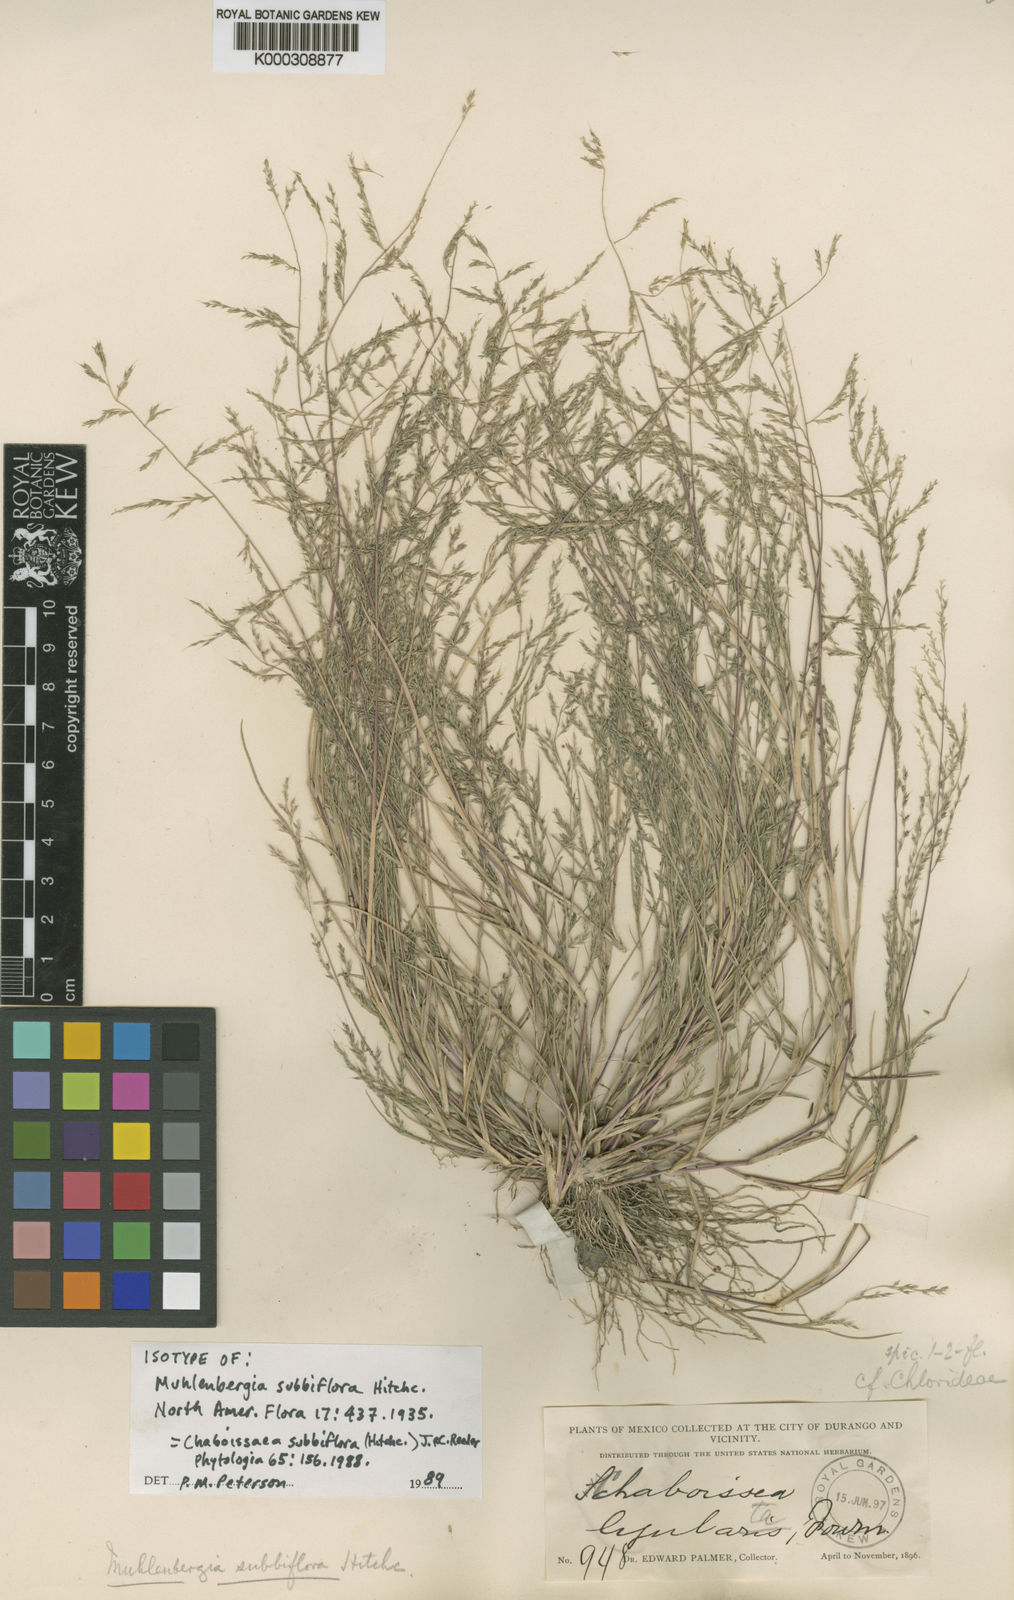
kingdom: Plantae
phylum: Tracheophyta
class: Liliopsida
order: Poales
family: Poaceae
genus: Muhlenbergia
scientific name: Muhlenbergia subbiflora
